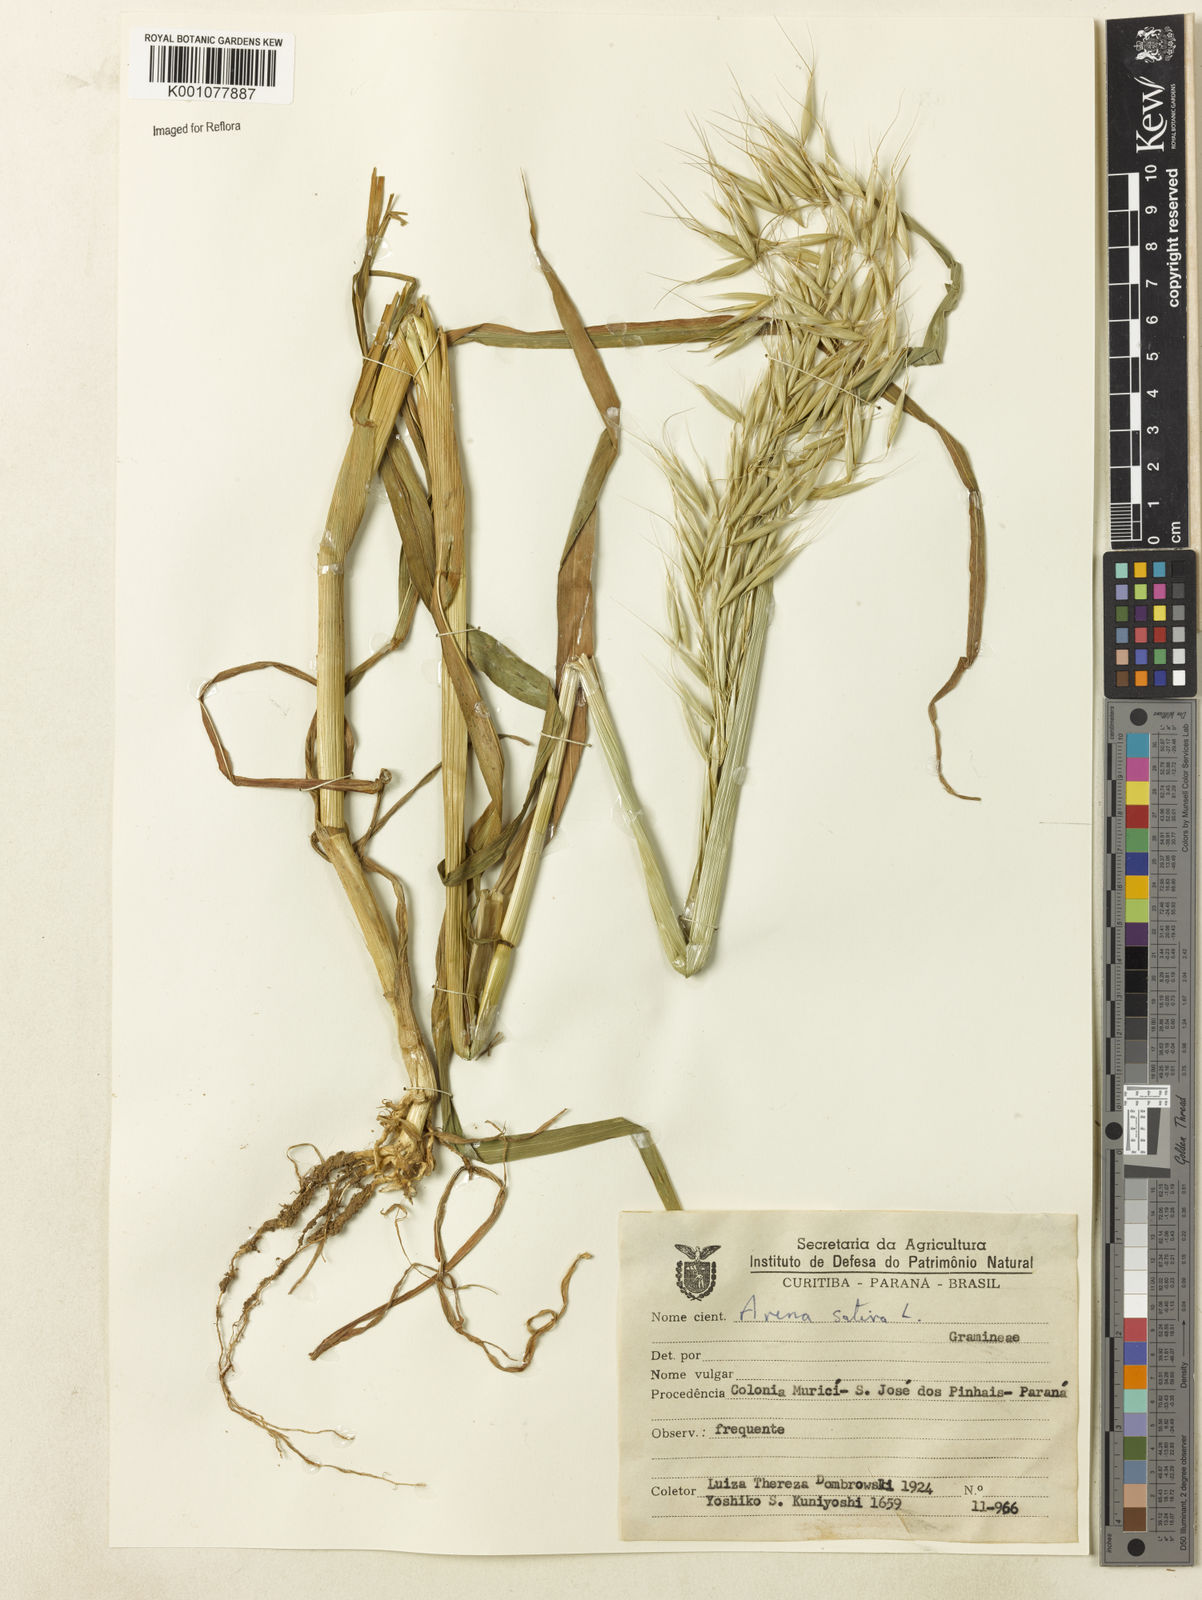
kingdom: Plantae
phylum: Tracheophyta
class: Liliopsida
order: Poales
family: Poaceae
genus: Avena
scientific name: Avena sativa
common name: Oat
